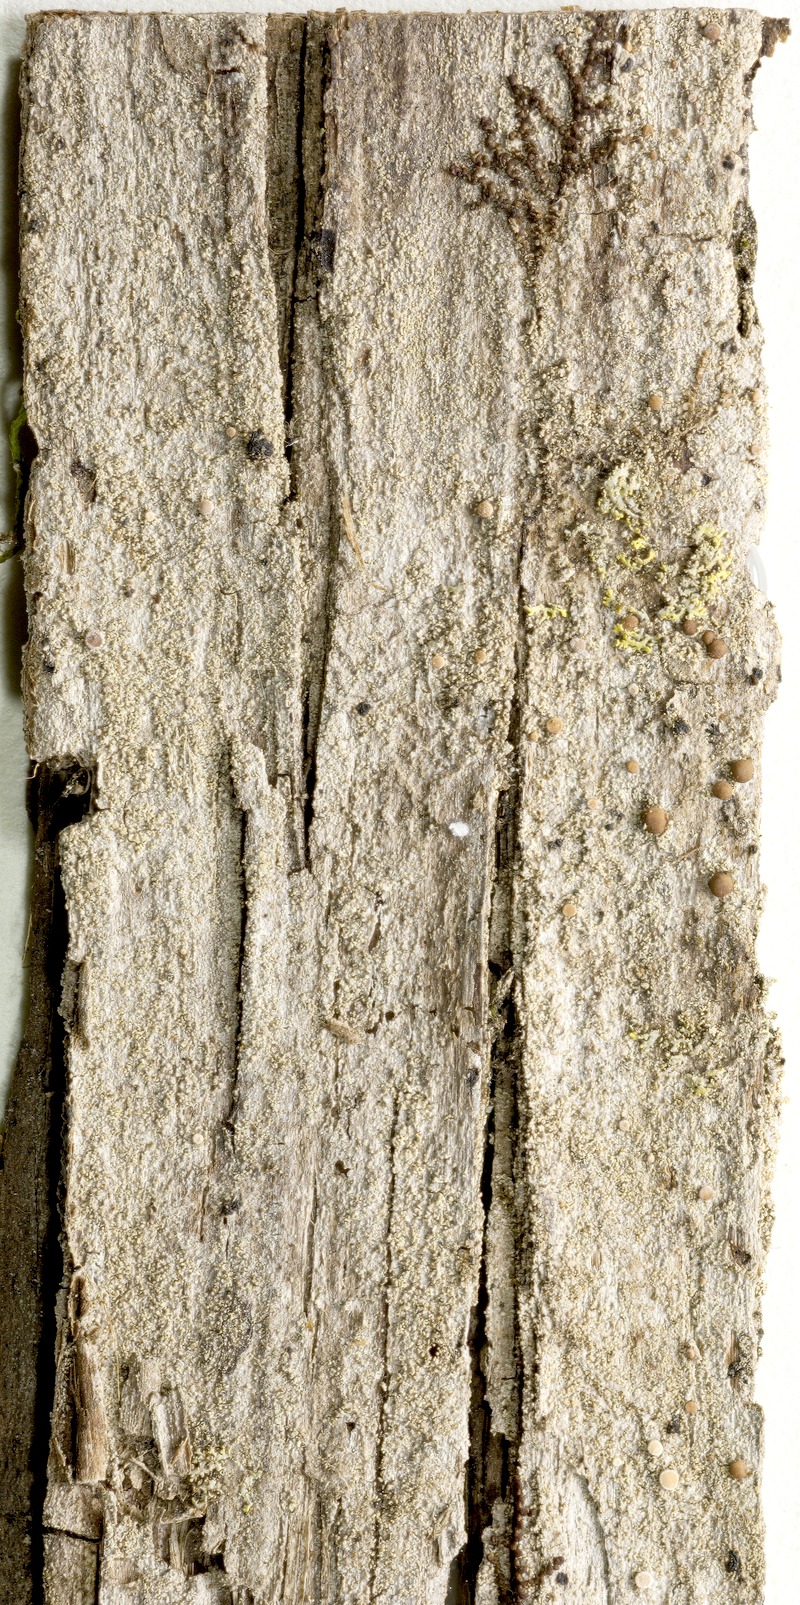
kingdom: Fungi
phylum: Ascomycota
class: Arthoniomycetes
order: Arthoniales
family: Opegraphaceae
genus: Opegrapha
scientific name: Opegrapha diffracticola
